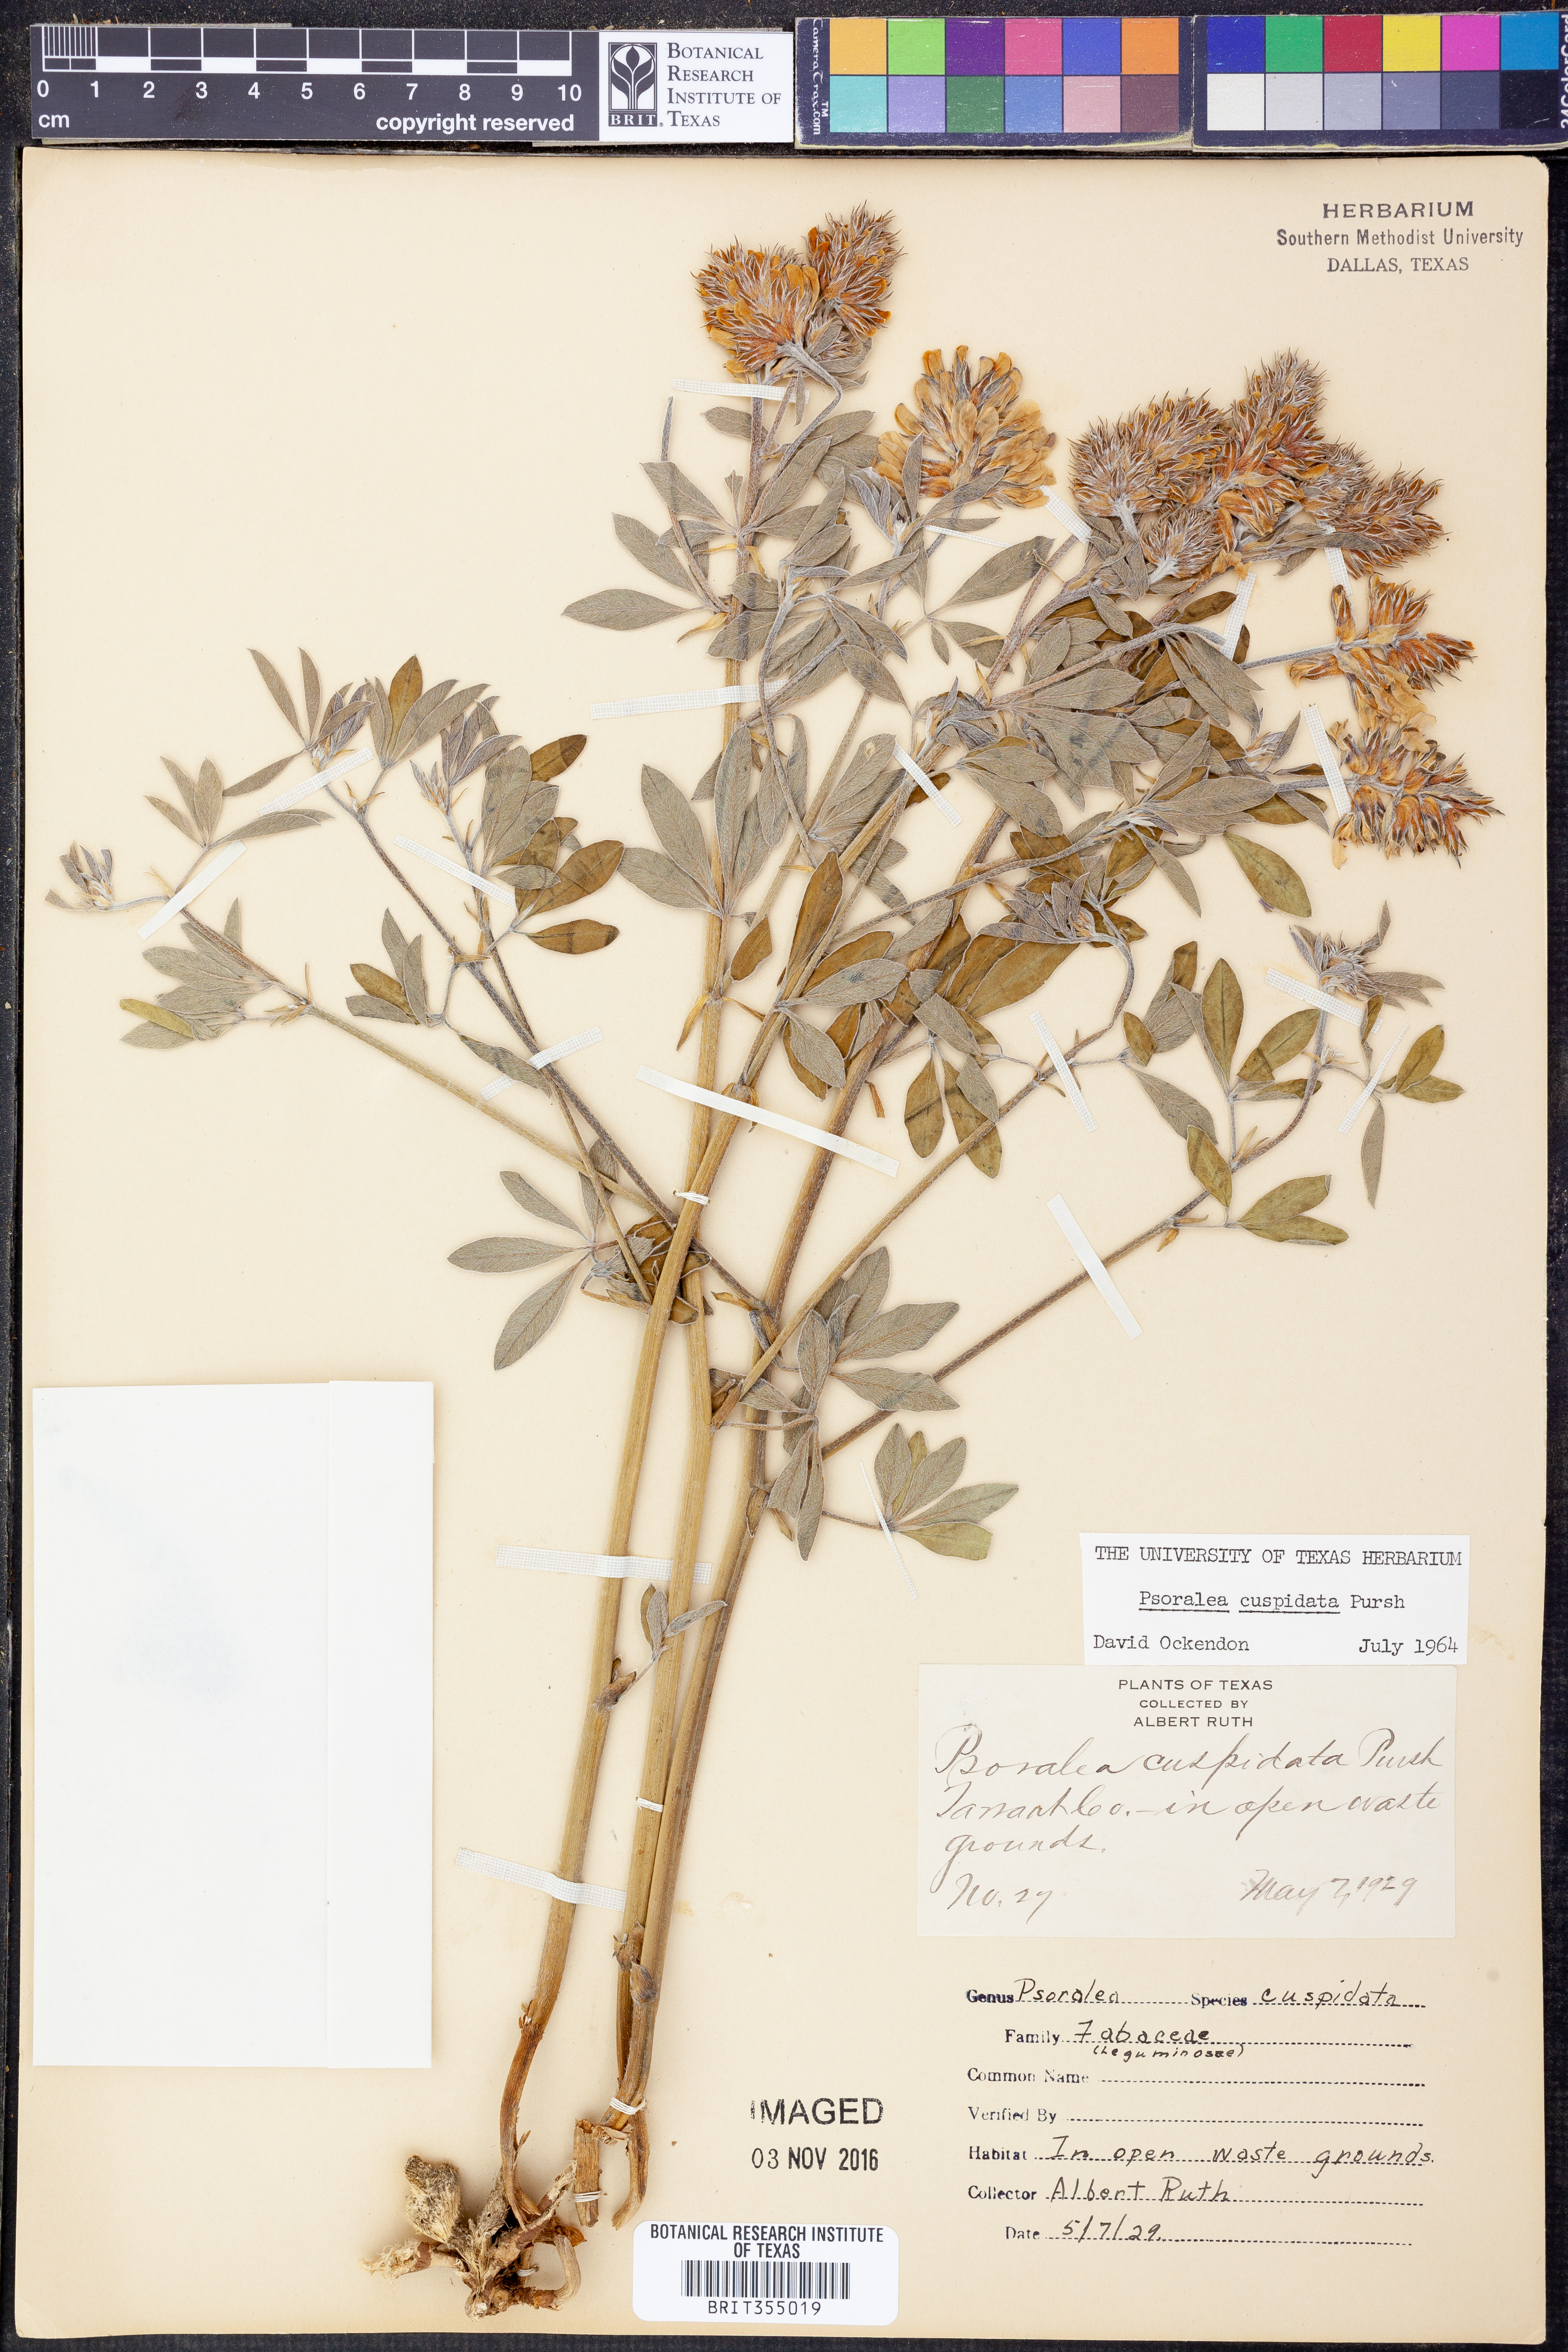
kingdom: Plantae
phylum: Tracheophyta
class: Magnoliopsida
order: Fabales
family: Fabaceae
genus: Pediomelum
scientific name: Pediomelum cuspidatum
